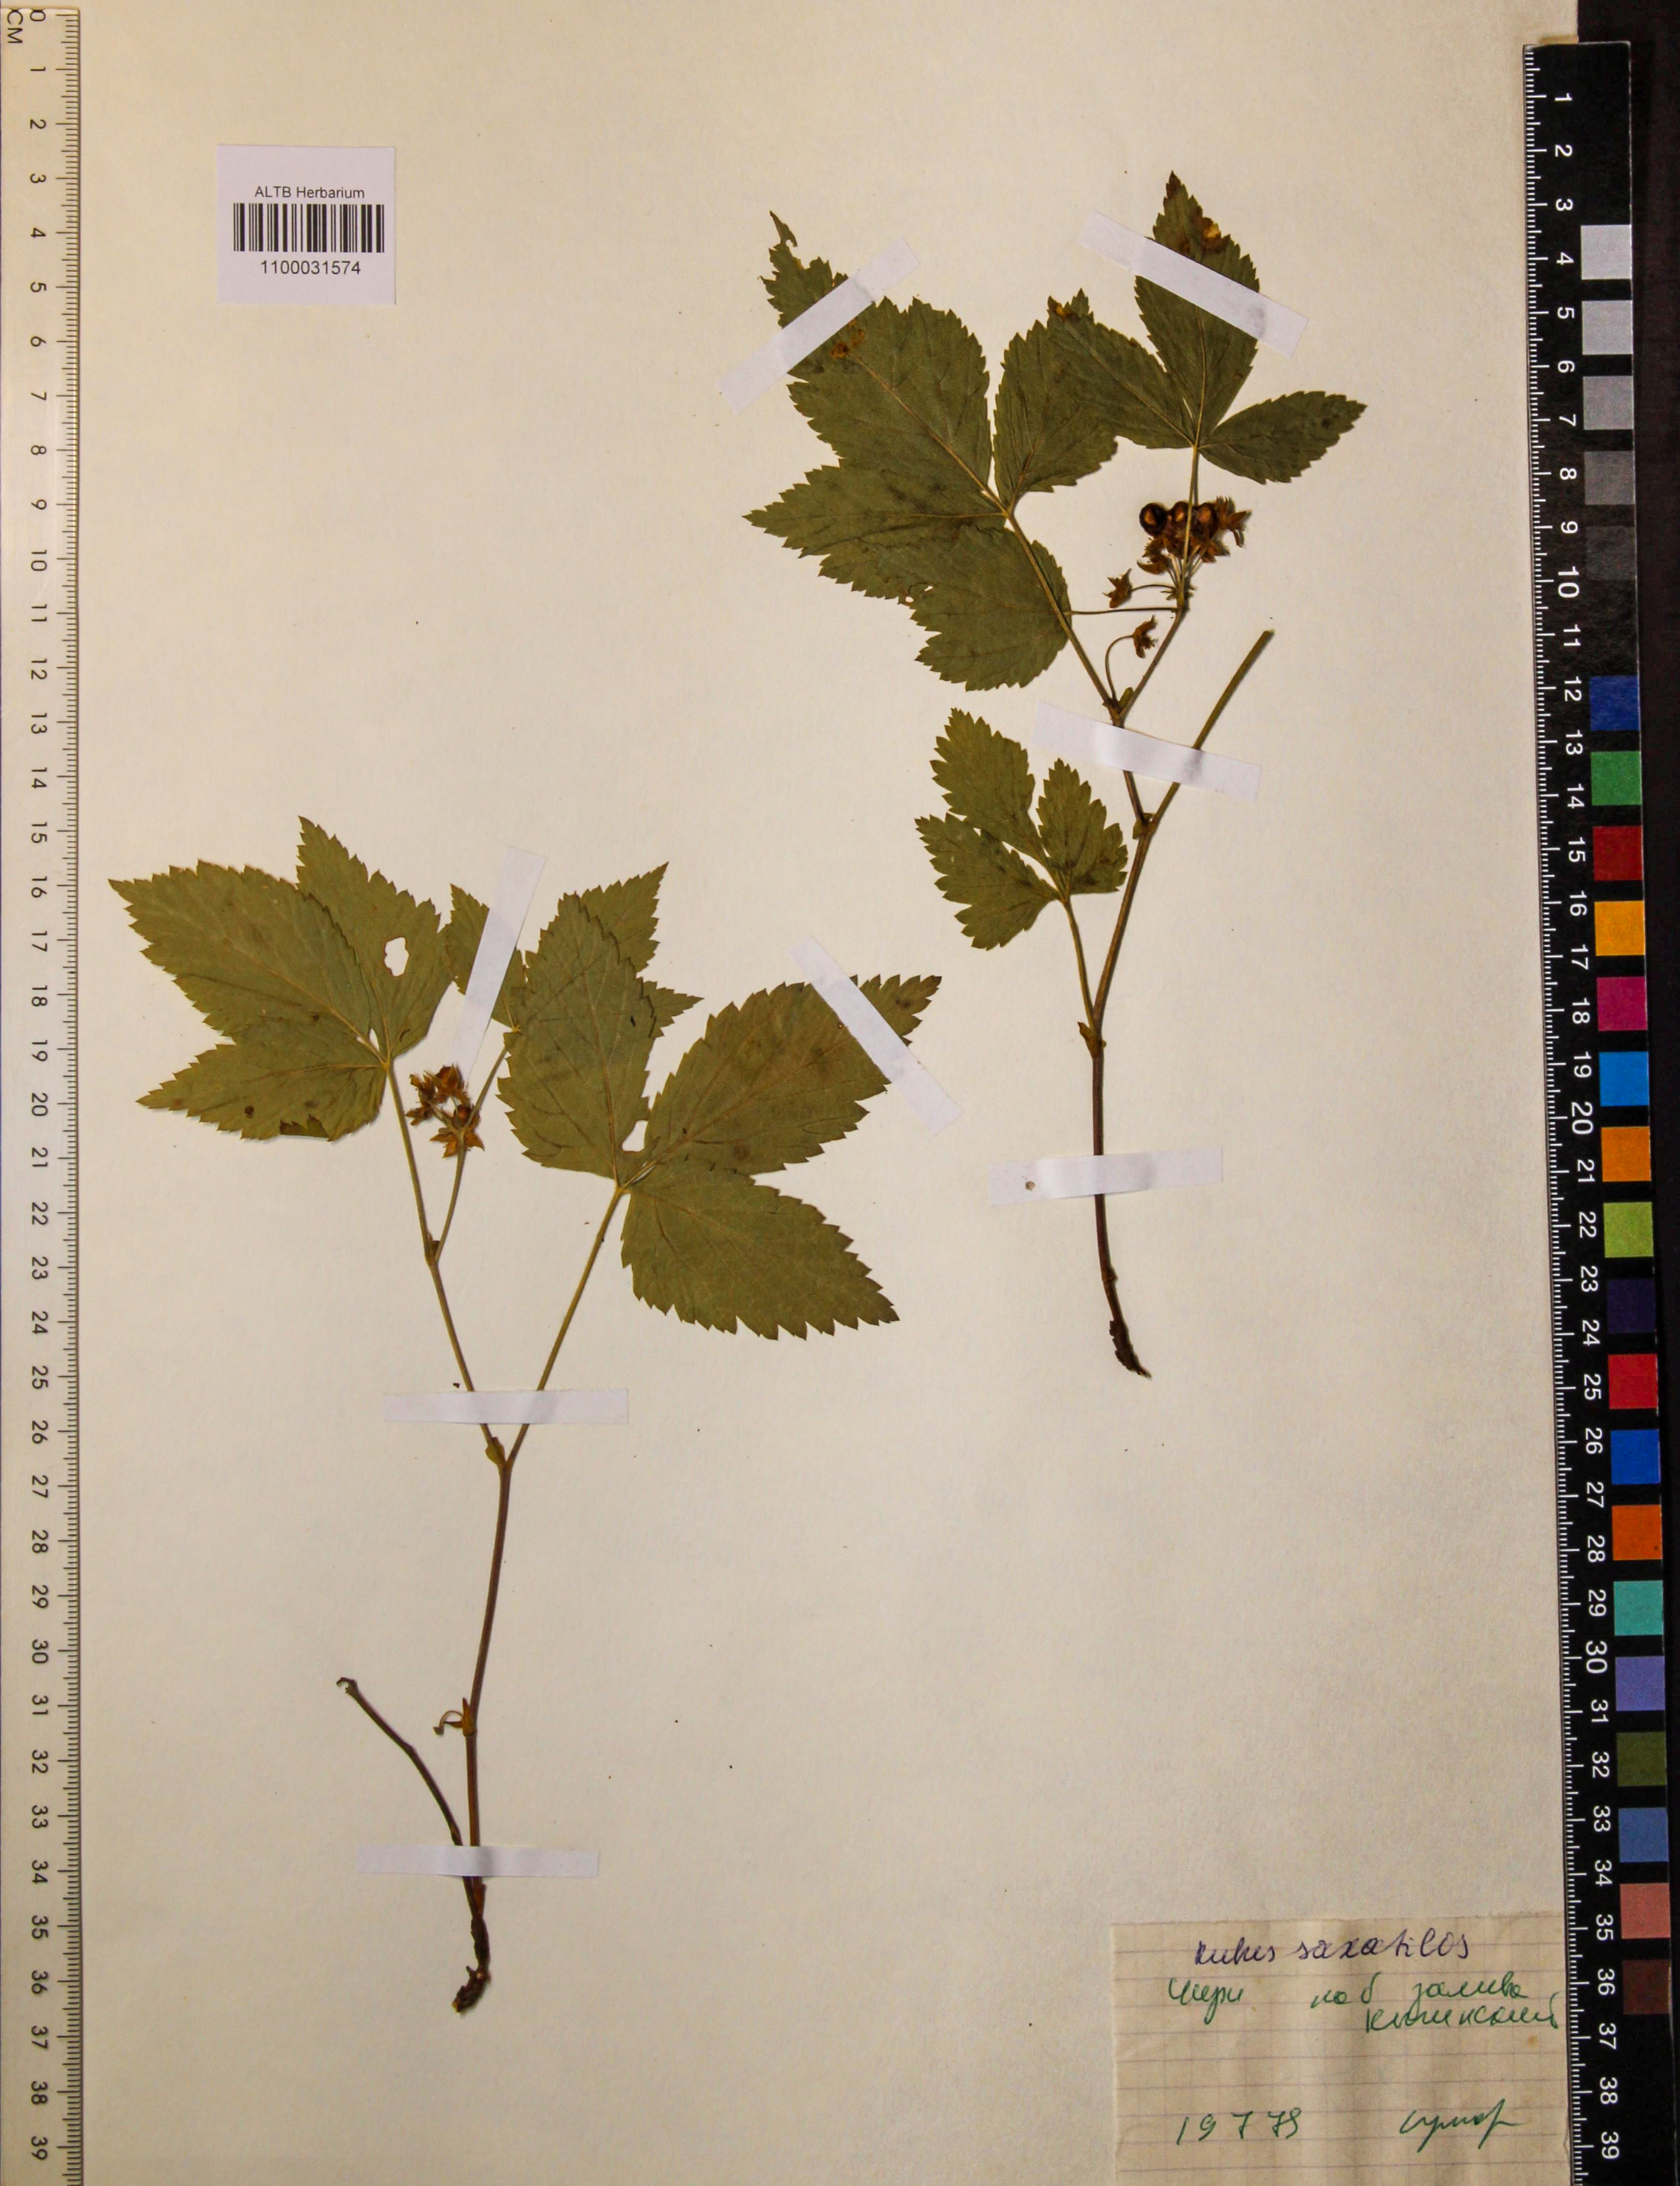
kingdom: Plantae
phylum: Tracheophyta
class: Magnoliopsida
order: Rosales
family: Rosaceae
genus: Rubus
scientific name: Rubus saxatilis
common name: Stone bramble
